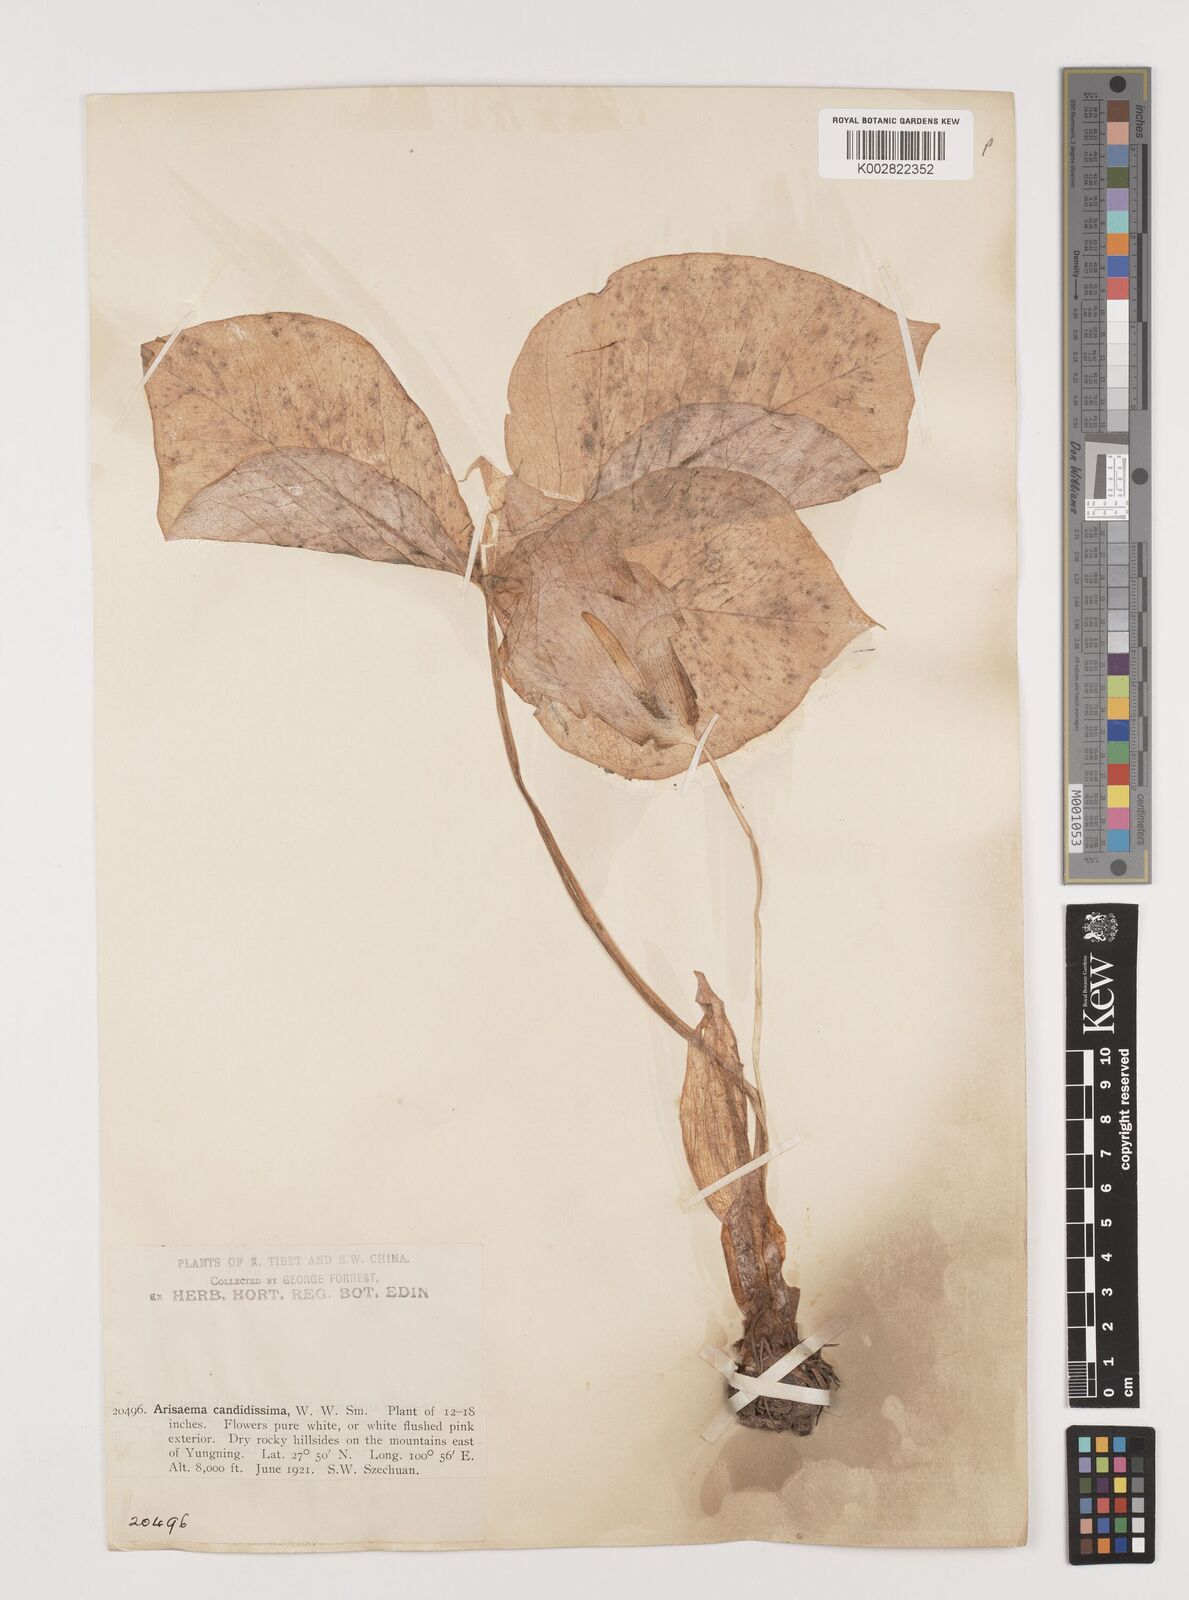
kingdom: Plantae
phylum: Tracheophyta
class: Liliopsida
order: Alismatales
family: Araceae
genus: Arisaema
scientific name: Arisaema candidissimum
